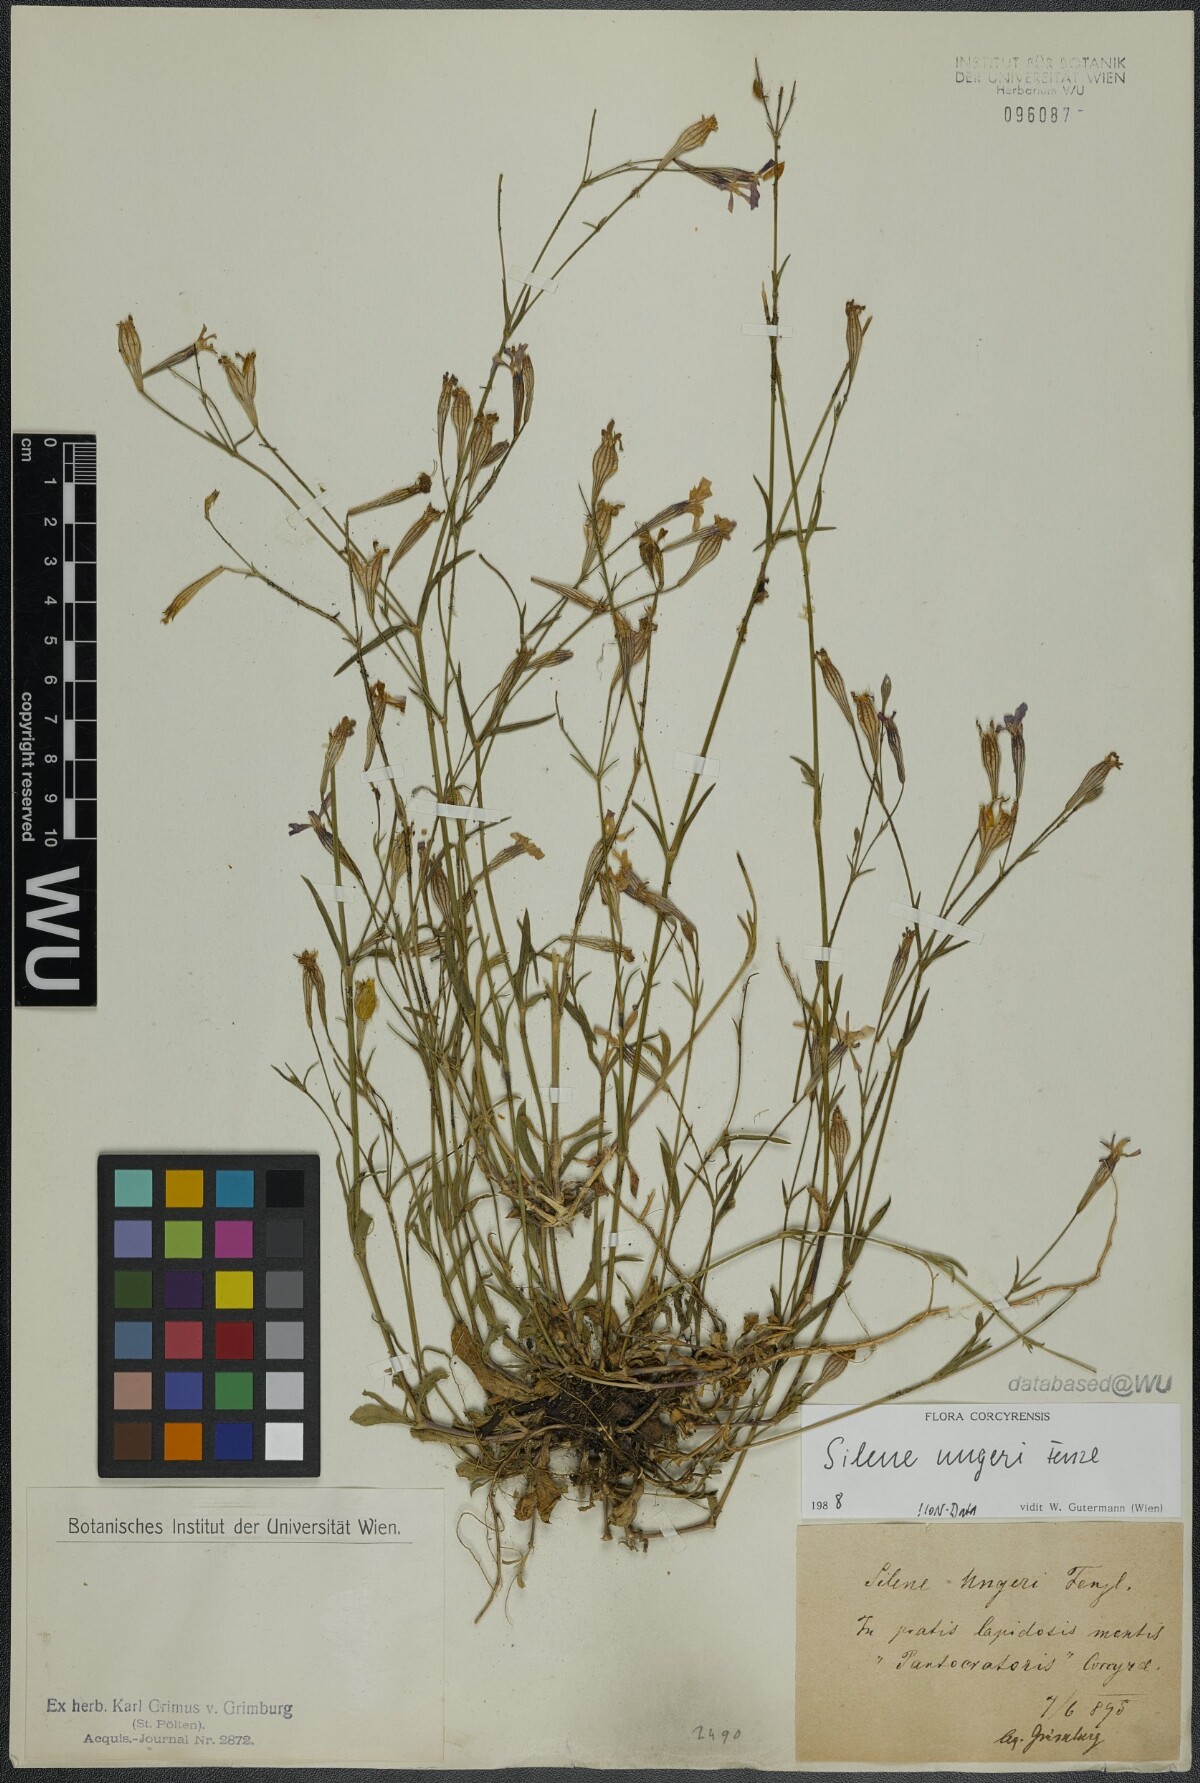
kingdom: Plantae
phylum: Tracheophyta
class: Magnoliopsida
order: Caryophyllales
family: Caryophyllaceae
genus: Silene
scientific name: Silene ungeri
